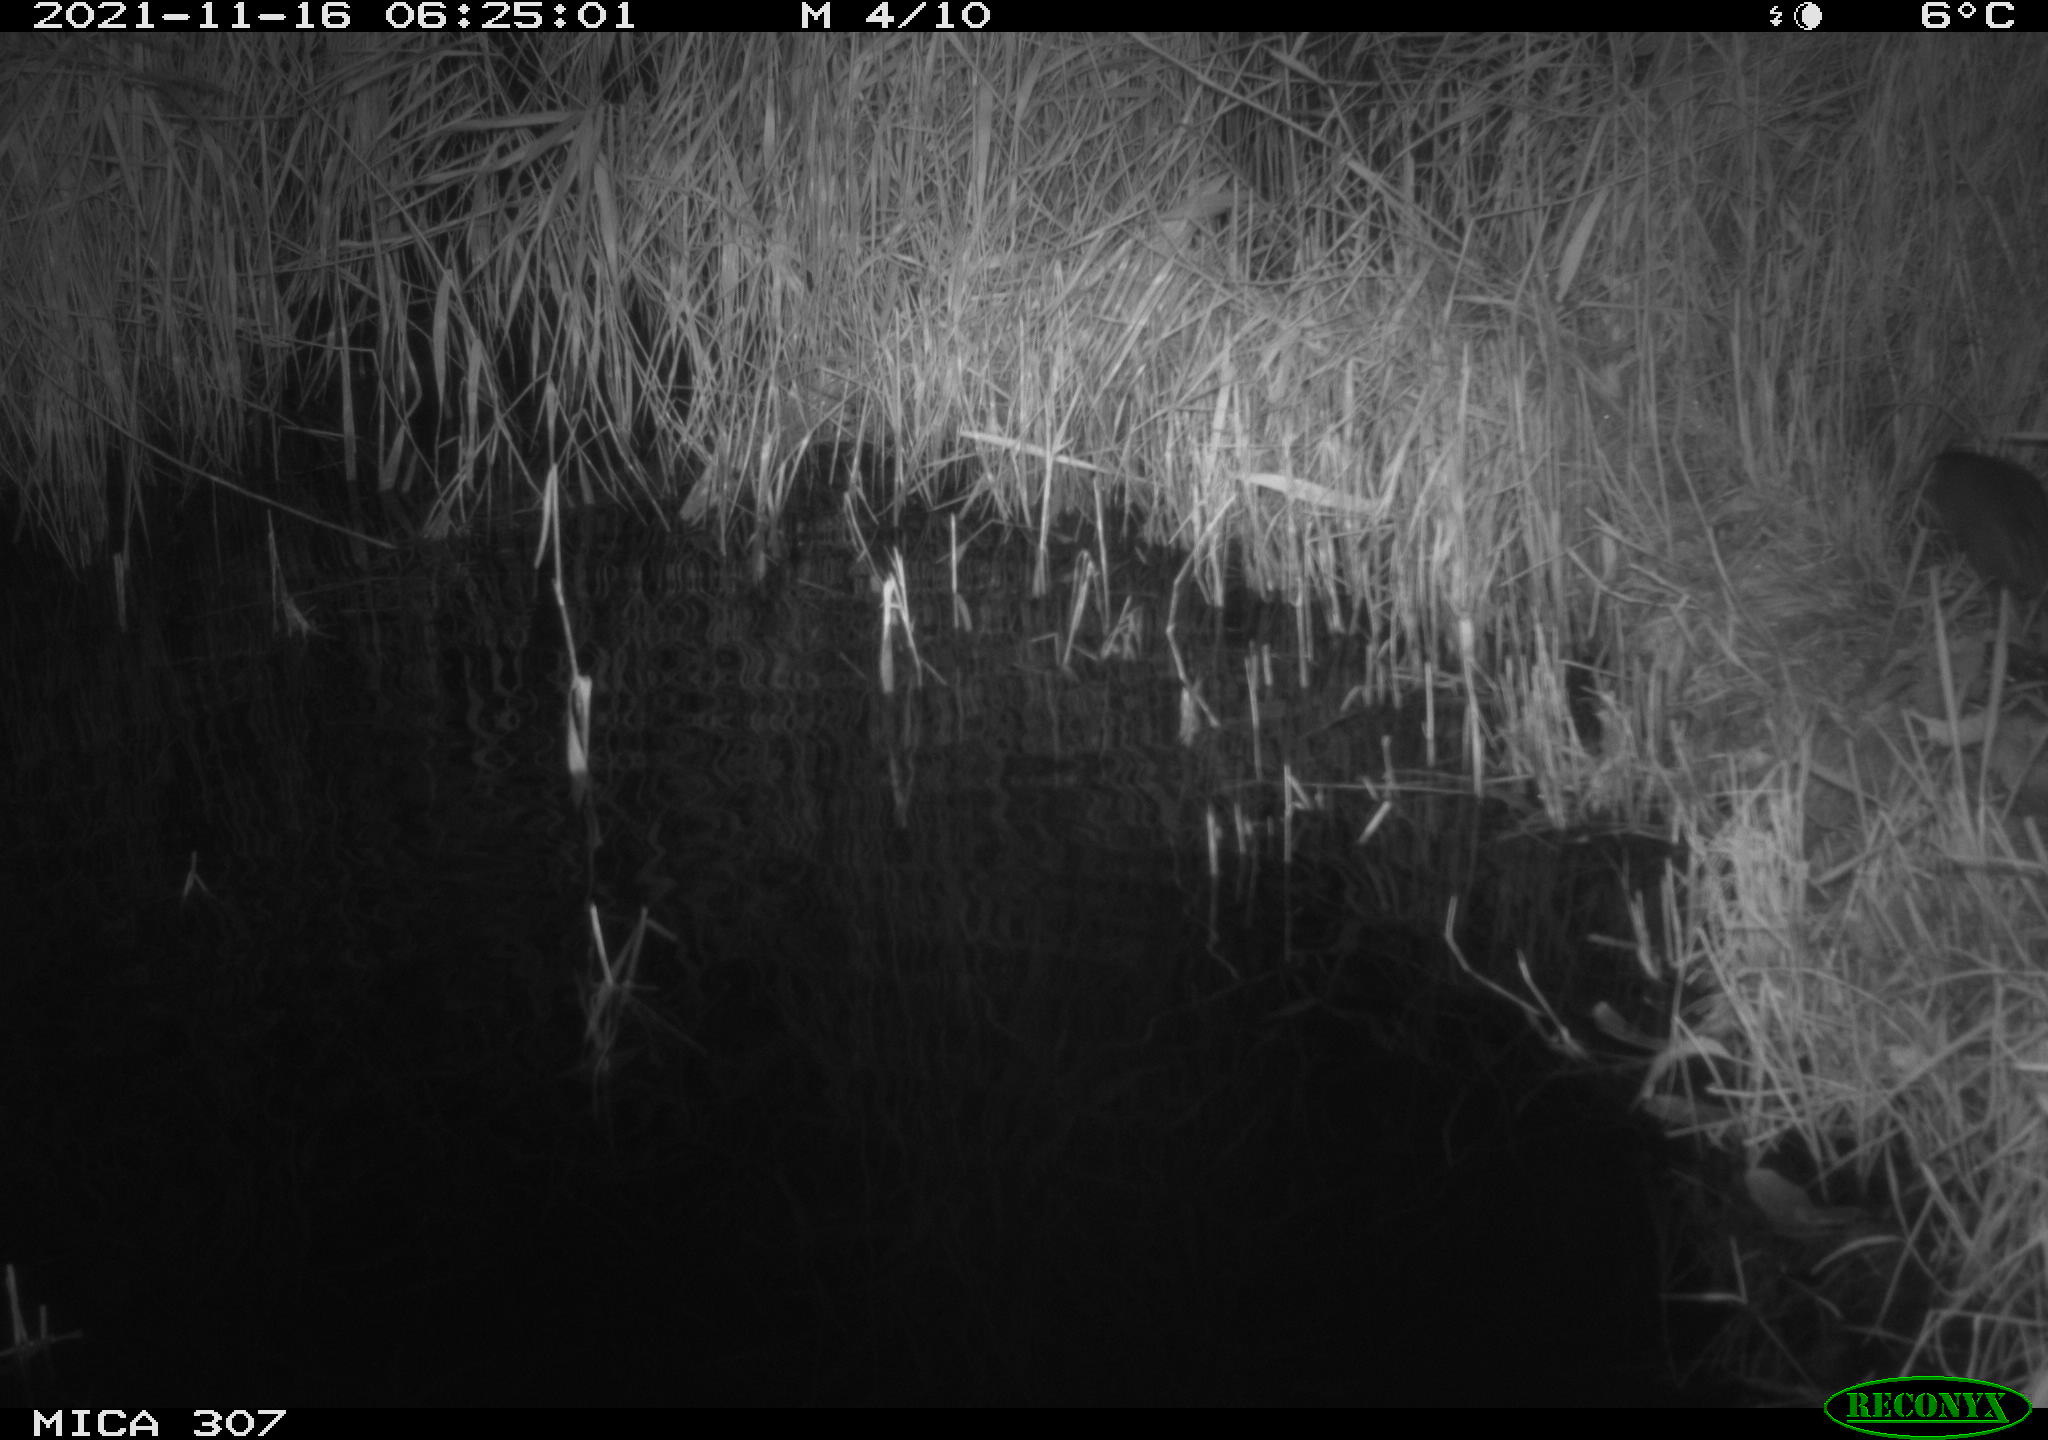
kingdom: Animalia
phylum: Chordata
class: Mammalia
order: Rodentia
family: Muridae
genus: Rattus
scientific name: Rattus norvegicus
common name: Brown rat
